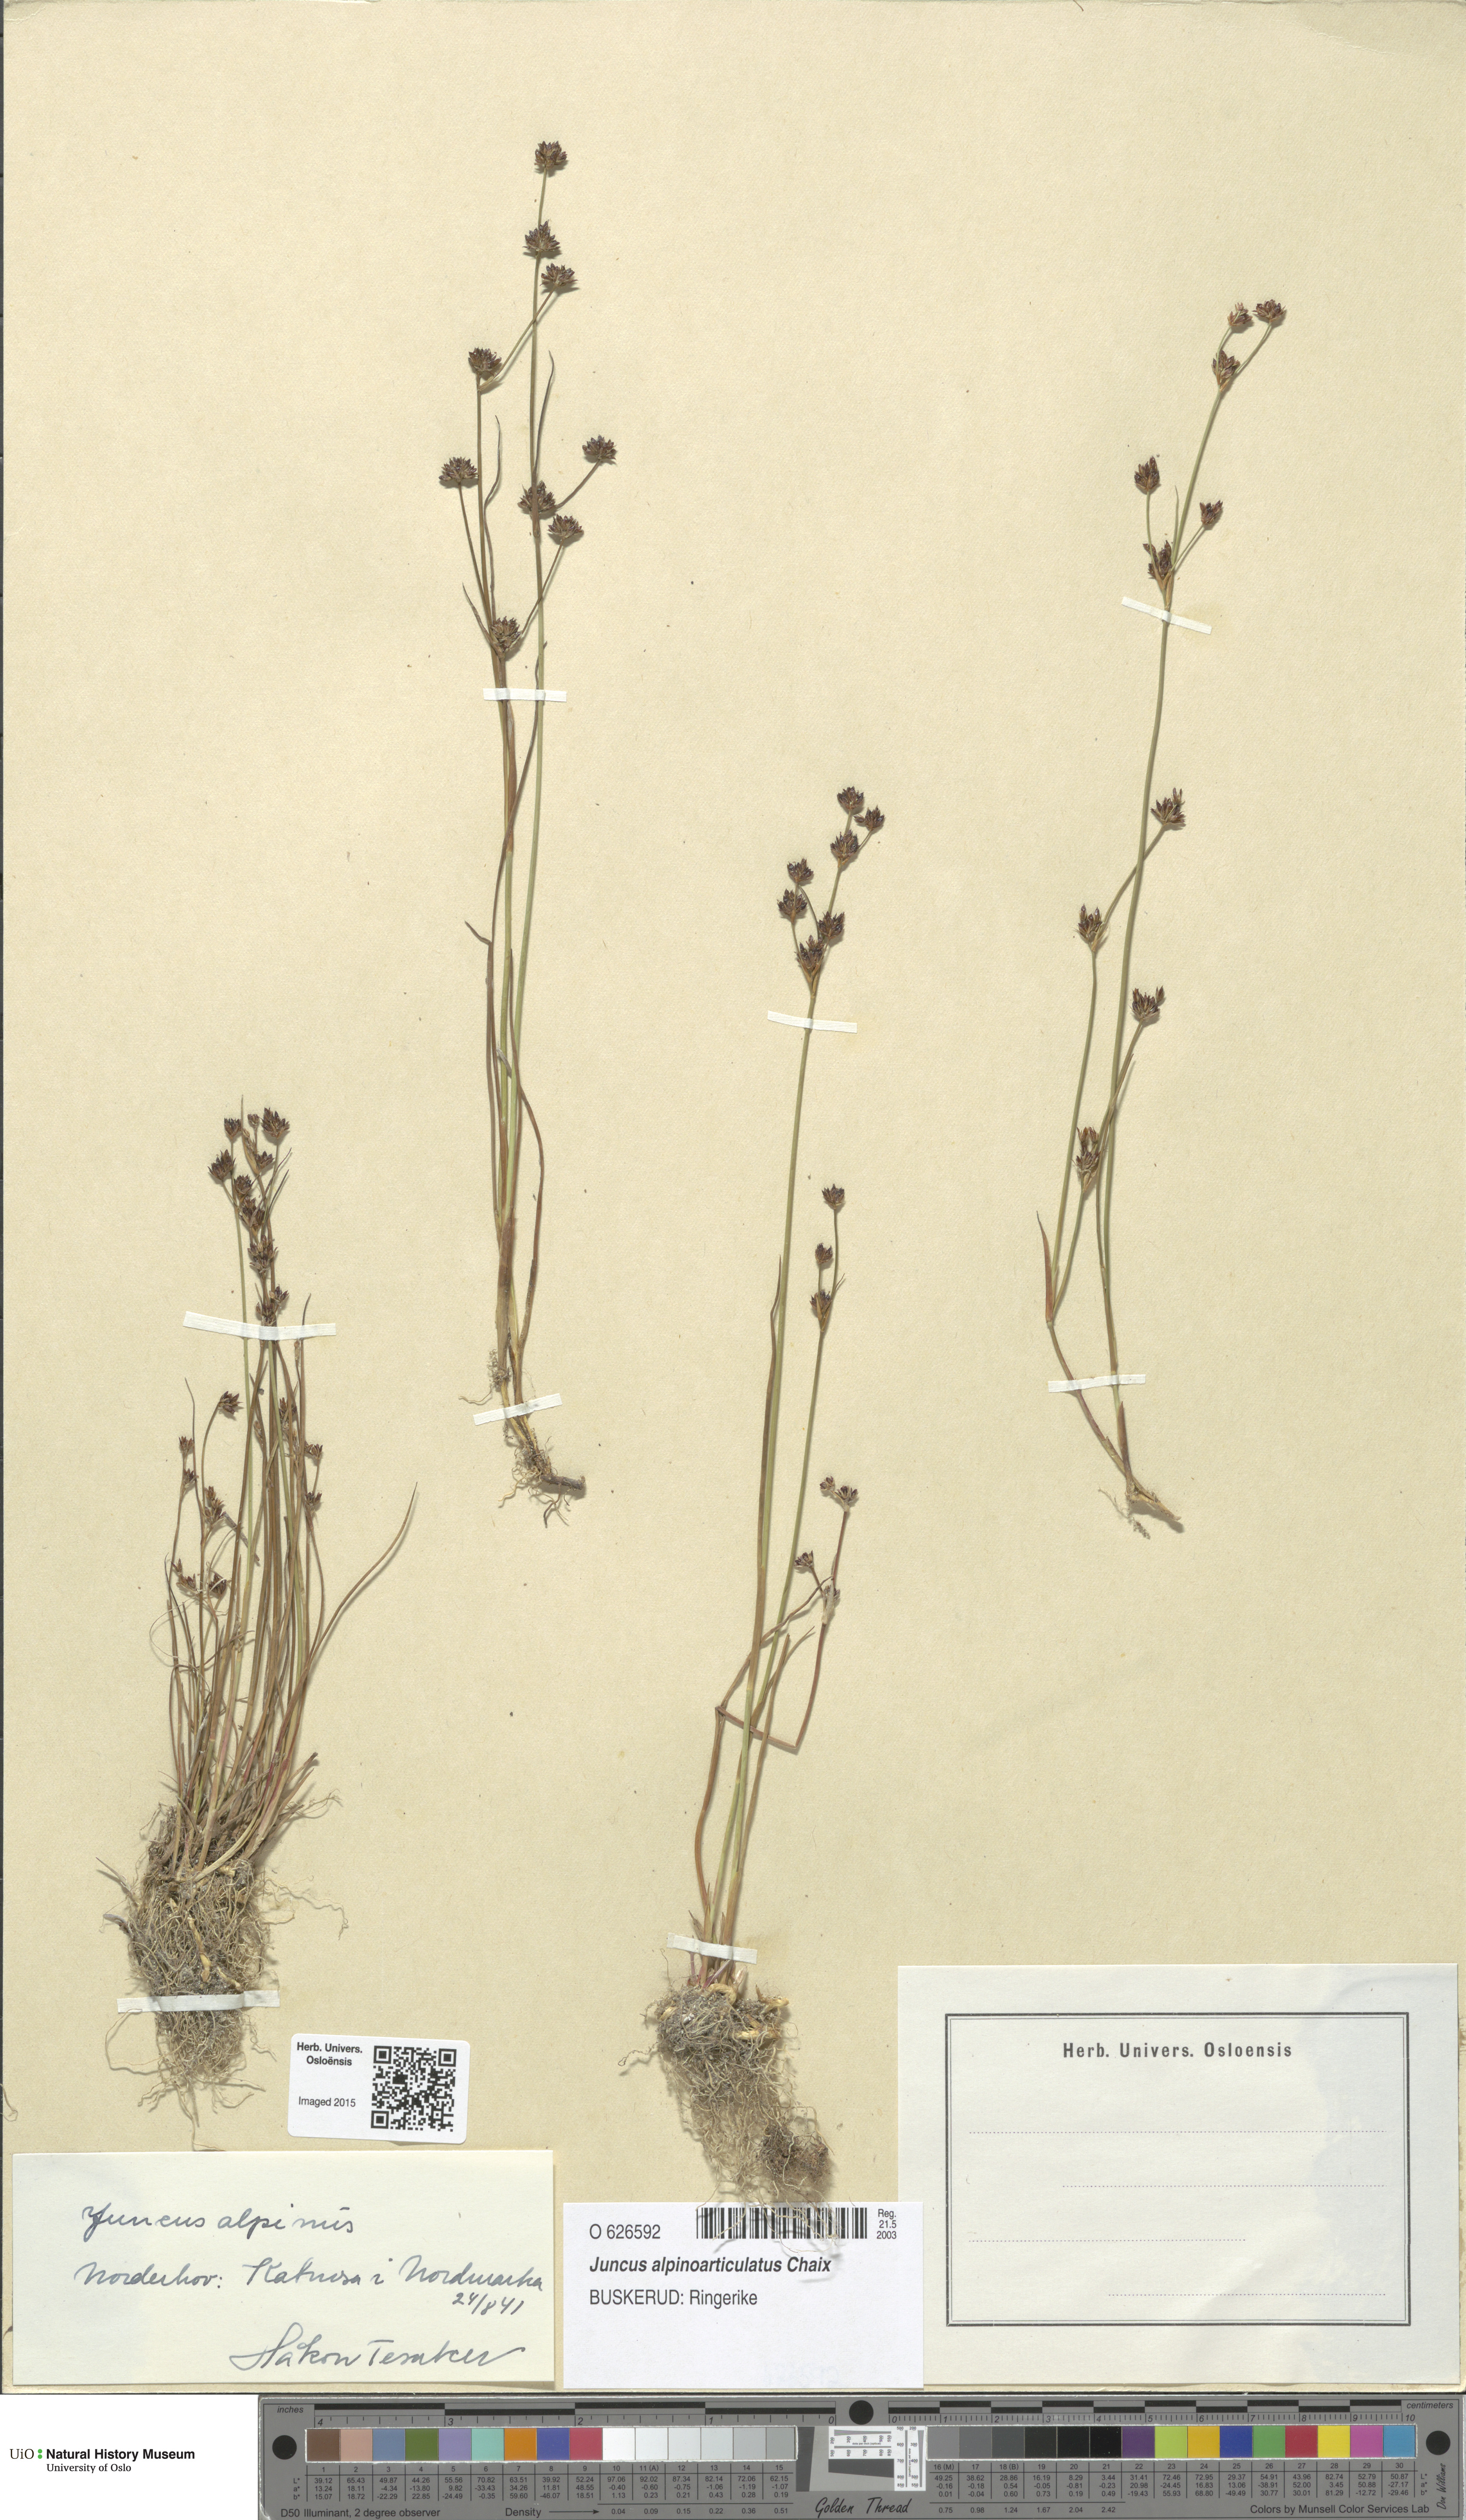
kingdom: Plantae
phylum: Tracheophyta
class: Liliopsida
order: Poales
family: Juncaceae
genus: Juncus
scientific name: Juncus alpinoarticulatus
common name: Alpine rush
